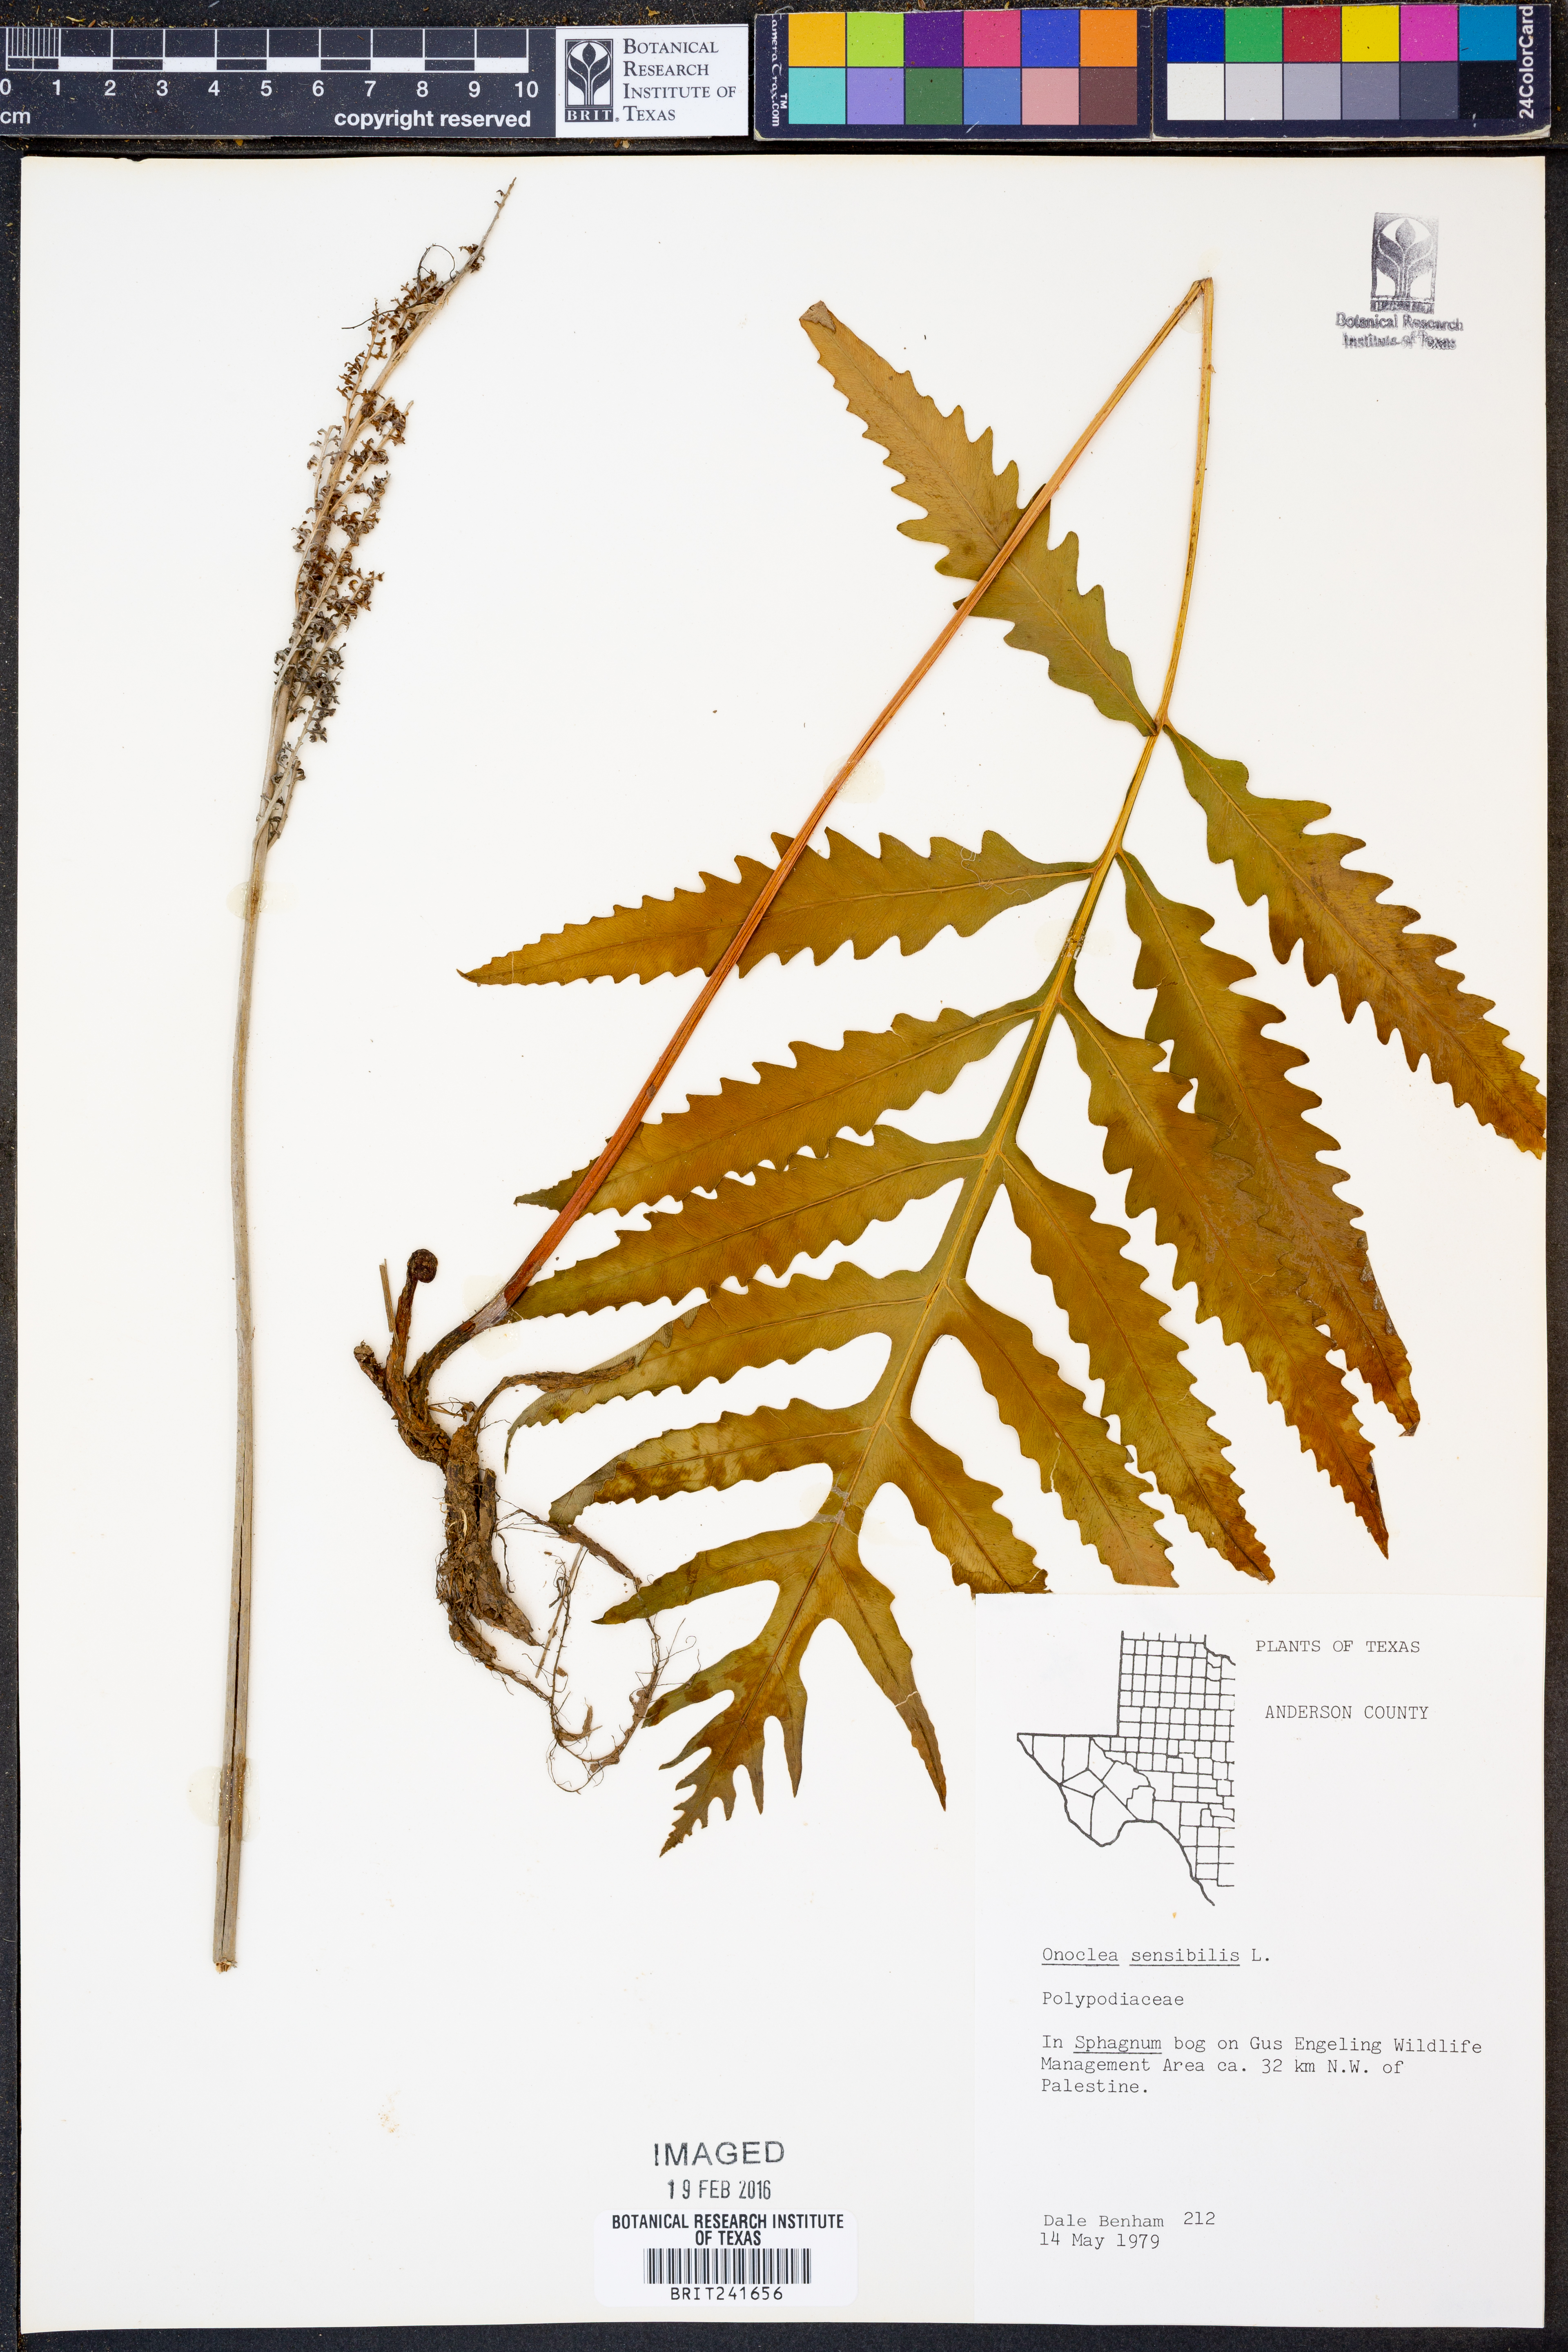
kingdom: Plantae
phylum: Tracheophyta
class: Polypodiopsida
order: Polypodiales
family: Onocleaceae
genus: Onoclea
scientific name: Onoclea sensibilis
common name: Sensitive fern
